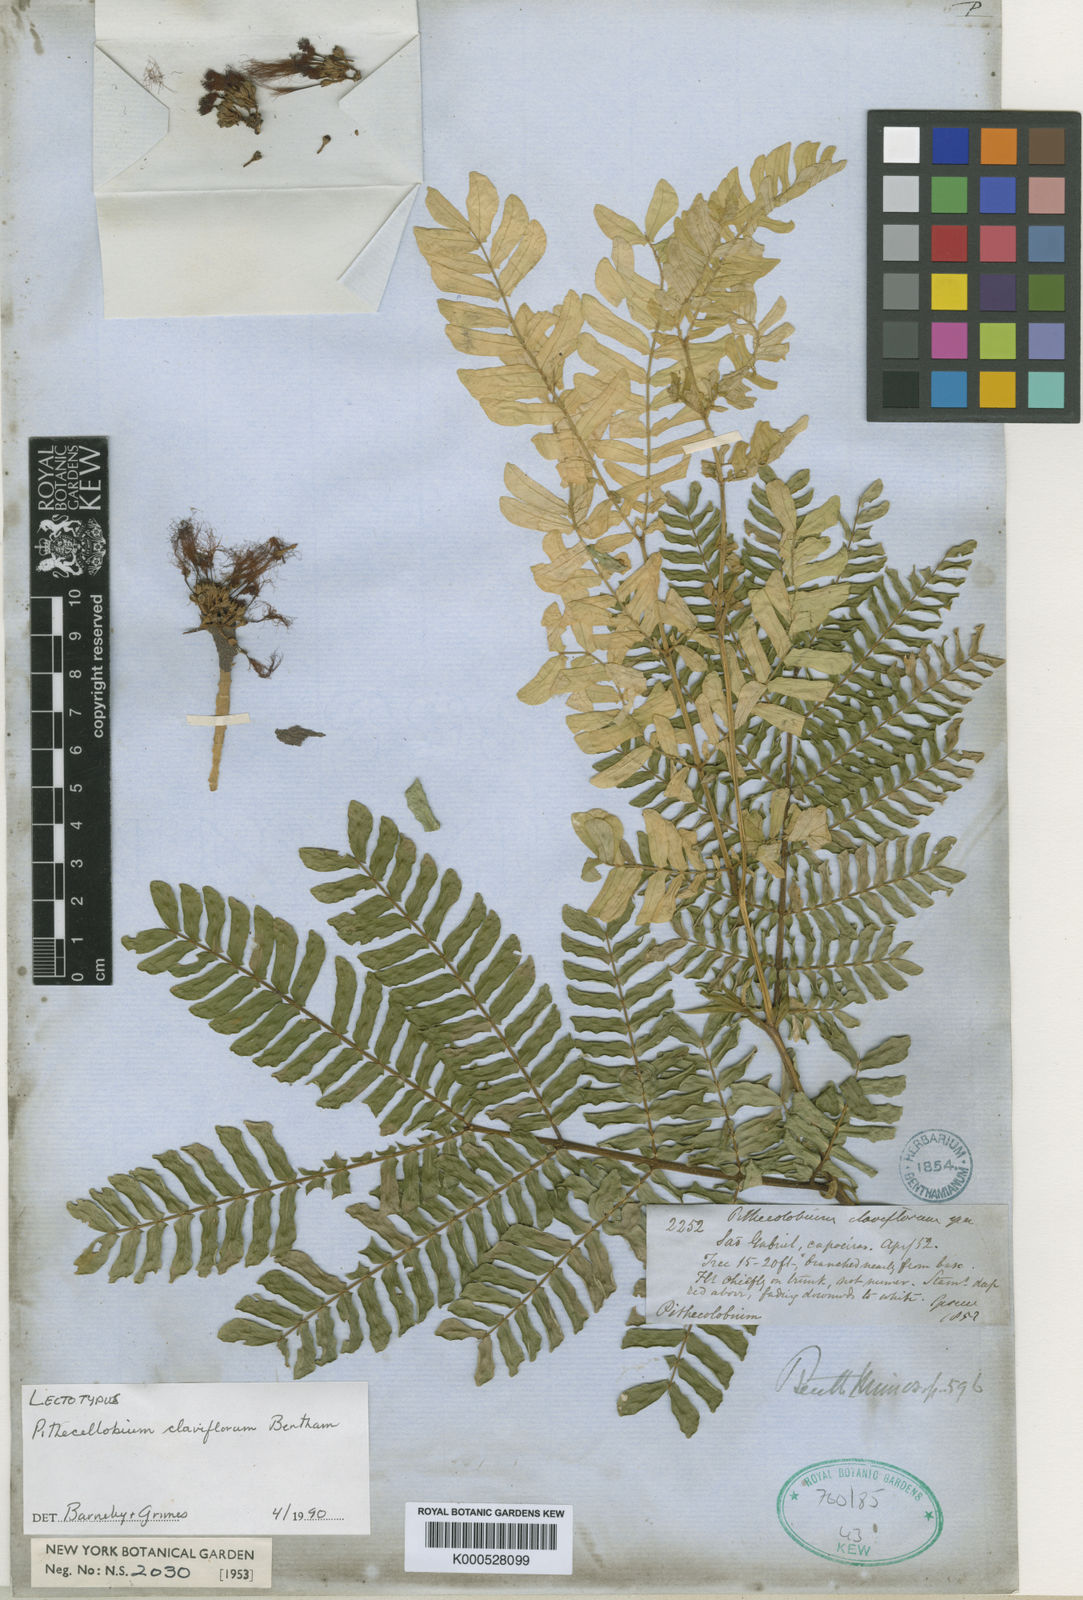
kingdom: Plantae
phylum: Tracheophyta
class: Magnoliopsida
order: Fabales
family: Fabaceae
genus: Zygia
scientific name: Zygia claviflora
